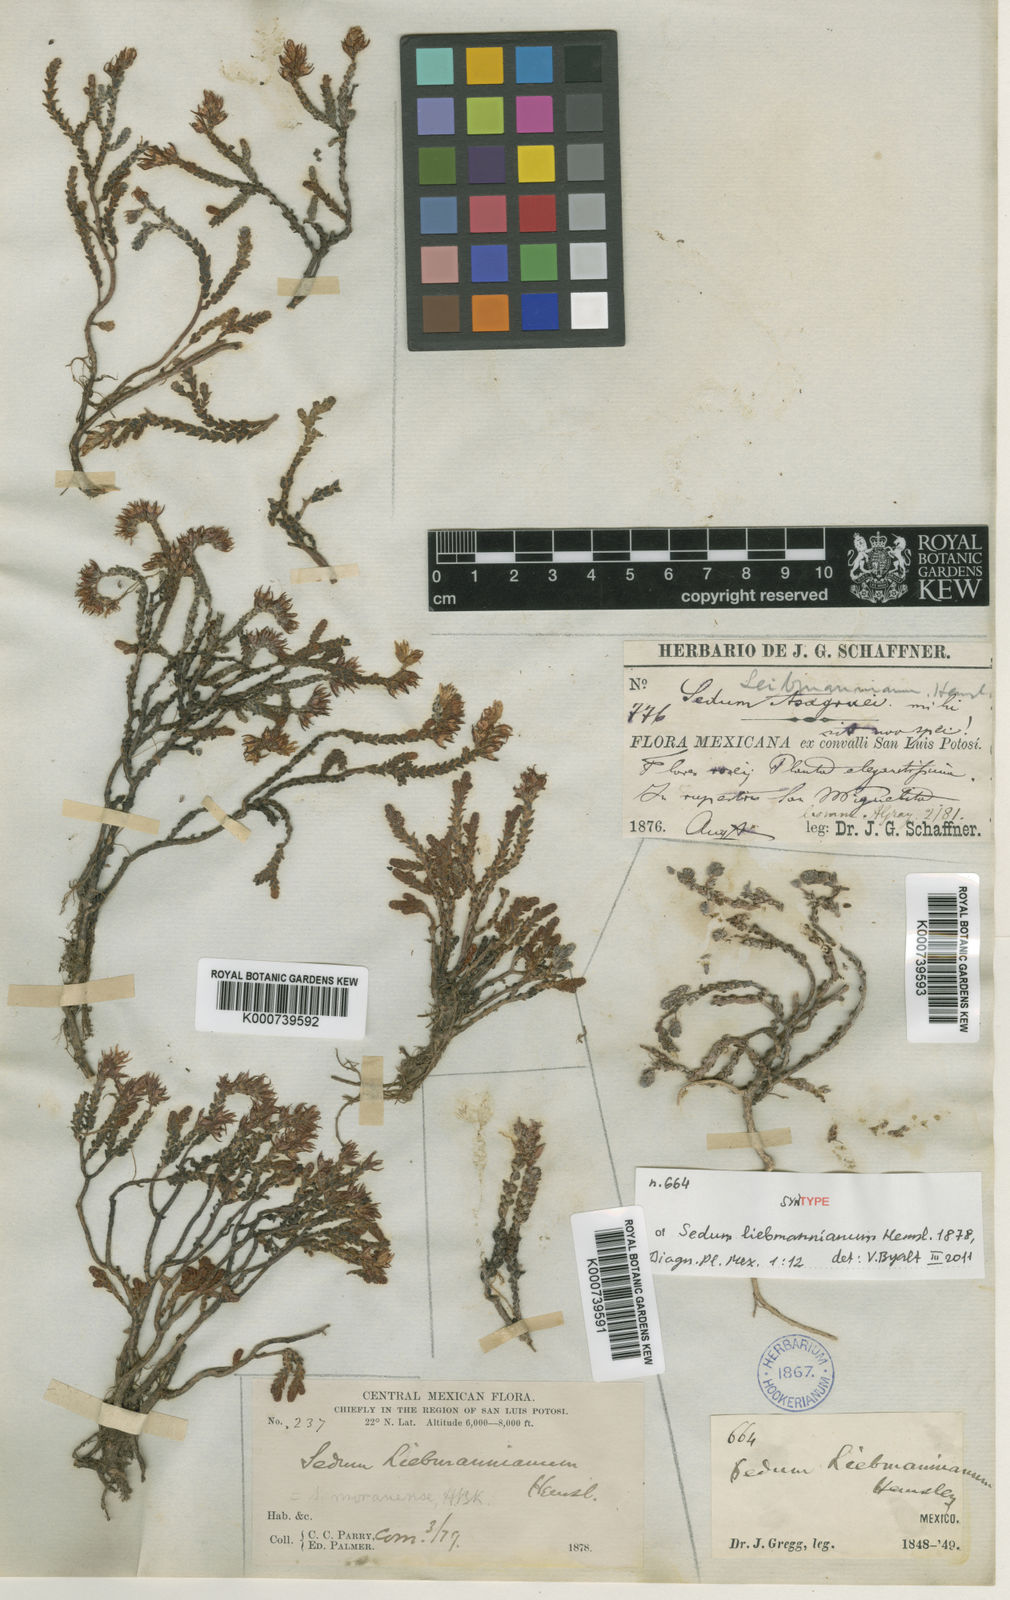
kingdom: Plantae
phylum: Tracheophyta
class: Magnoliopsida
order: Saxifragales
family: Crassulaceae
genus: Sedum
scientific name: Sedum liebmannianum
